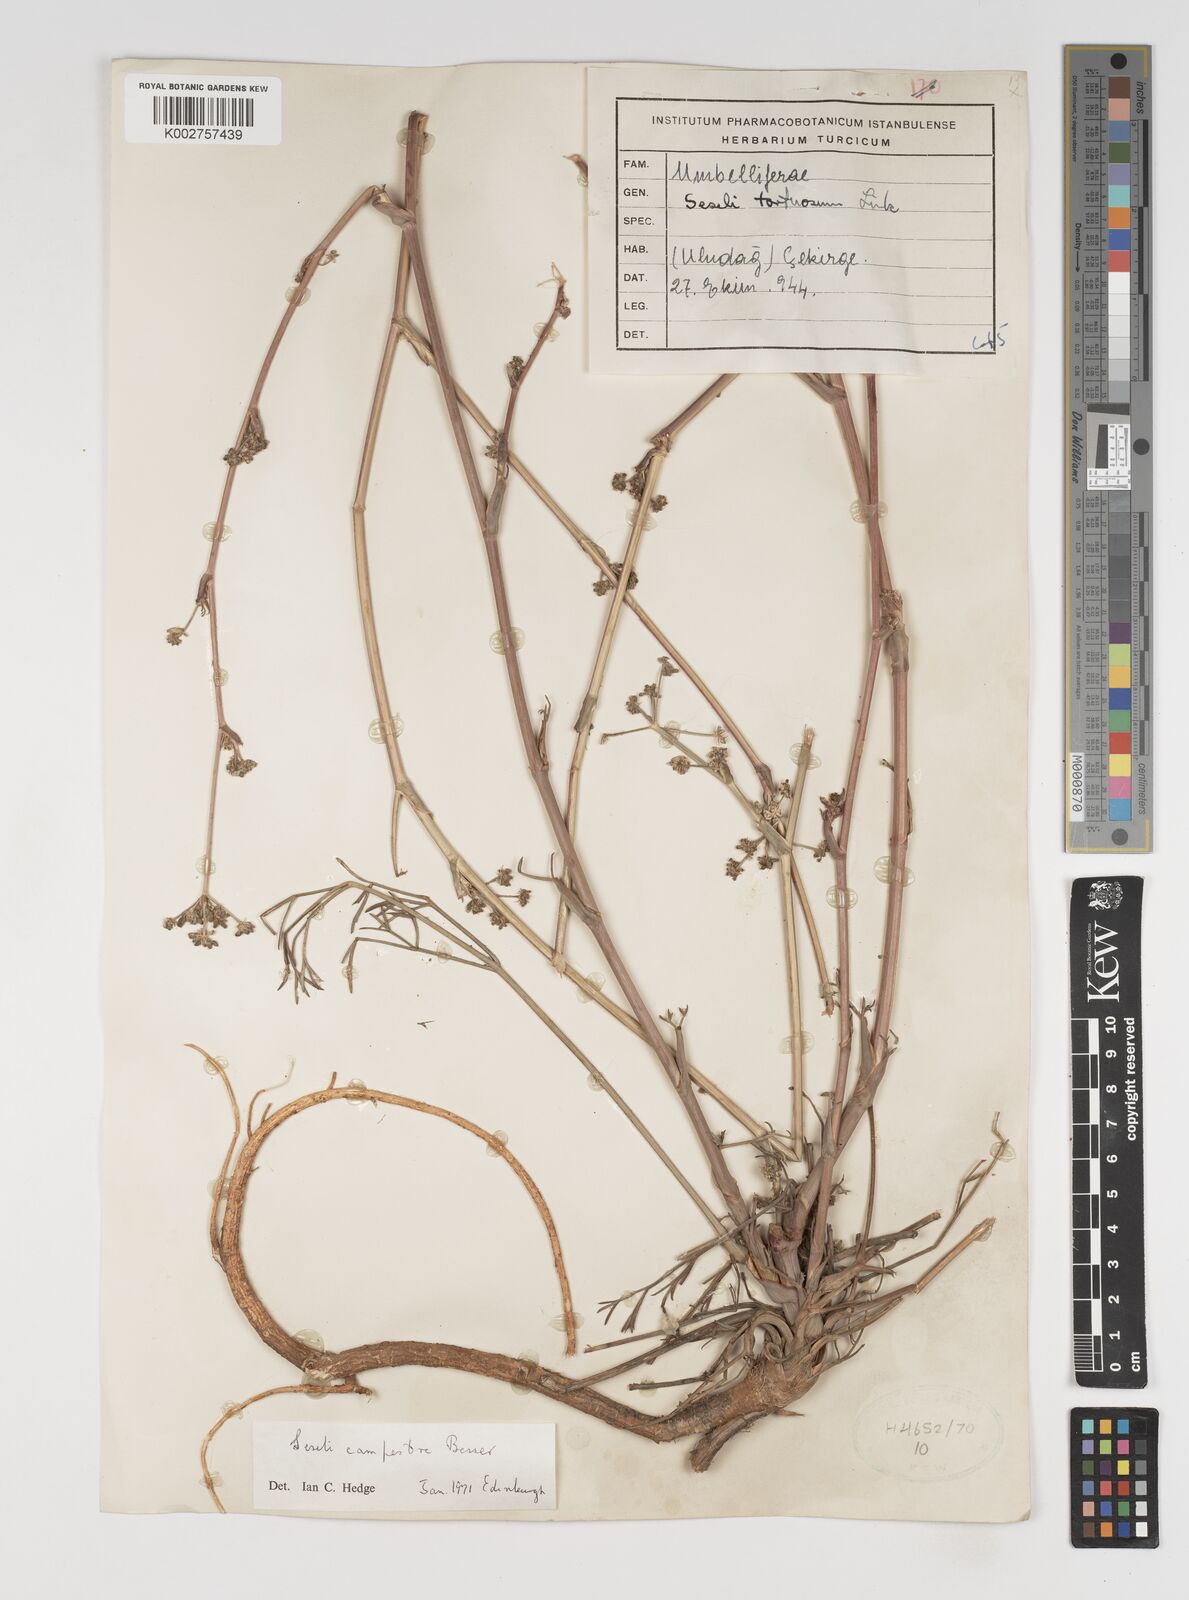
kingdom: Plantae
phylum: Tracheophyta
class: Magnoliopsida
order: Apiales
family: Apiaceae
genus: Seseli
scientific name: Seseli campestre
